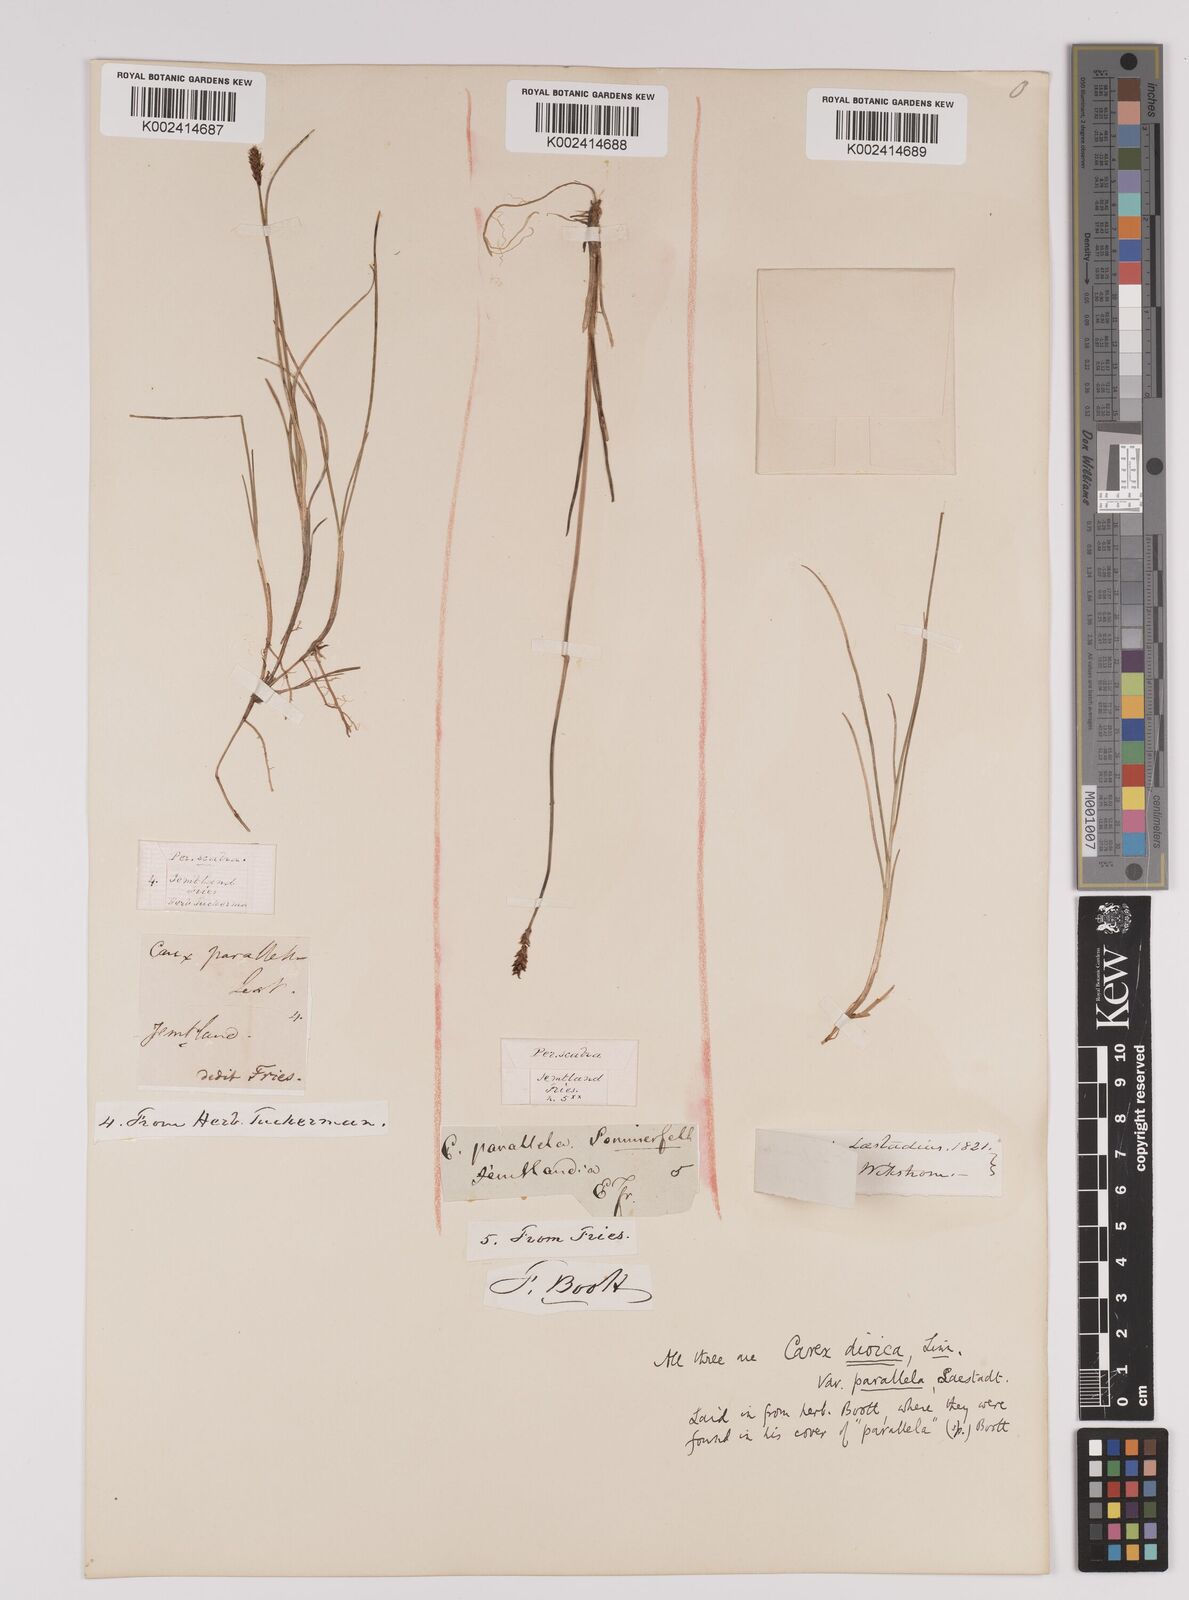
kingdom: Plantae
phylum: Tracheophyta
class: Liliopsida
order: Poales
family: Cyperaceae
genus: Carex
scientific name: Carex parallela
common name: Parallel sedge
